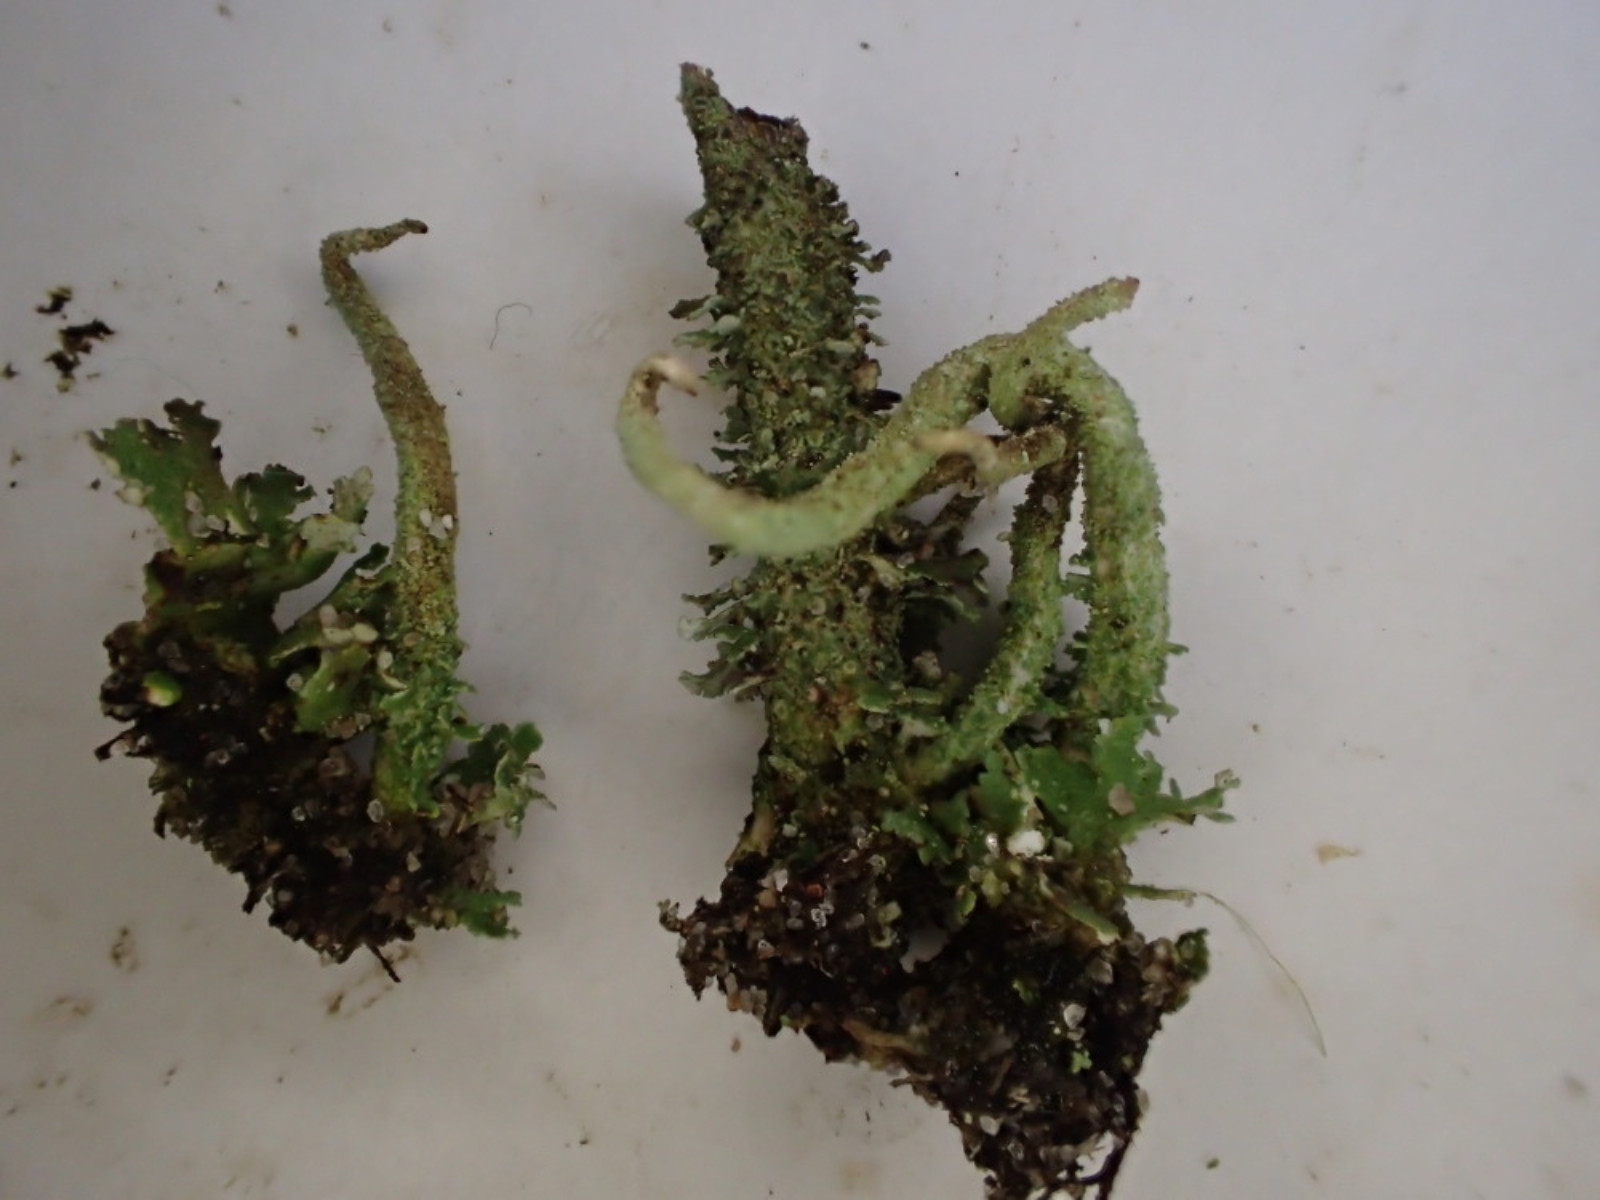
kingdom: Fungi
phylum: Ascomycota
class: Lecanoromycetes
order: Lecanorales
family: Cladoniaceae
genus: Cladonia
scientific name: Cladonia glauca
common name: grågrøn bægerlav
